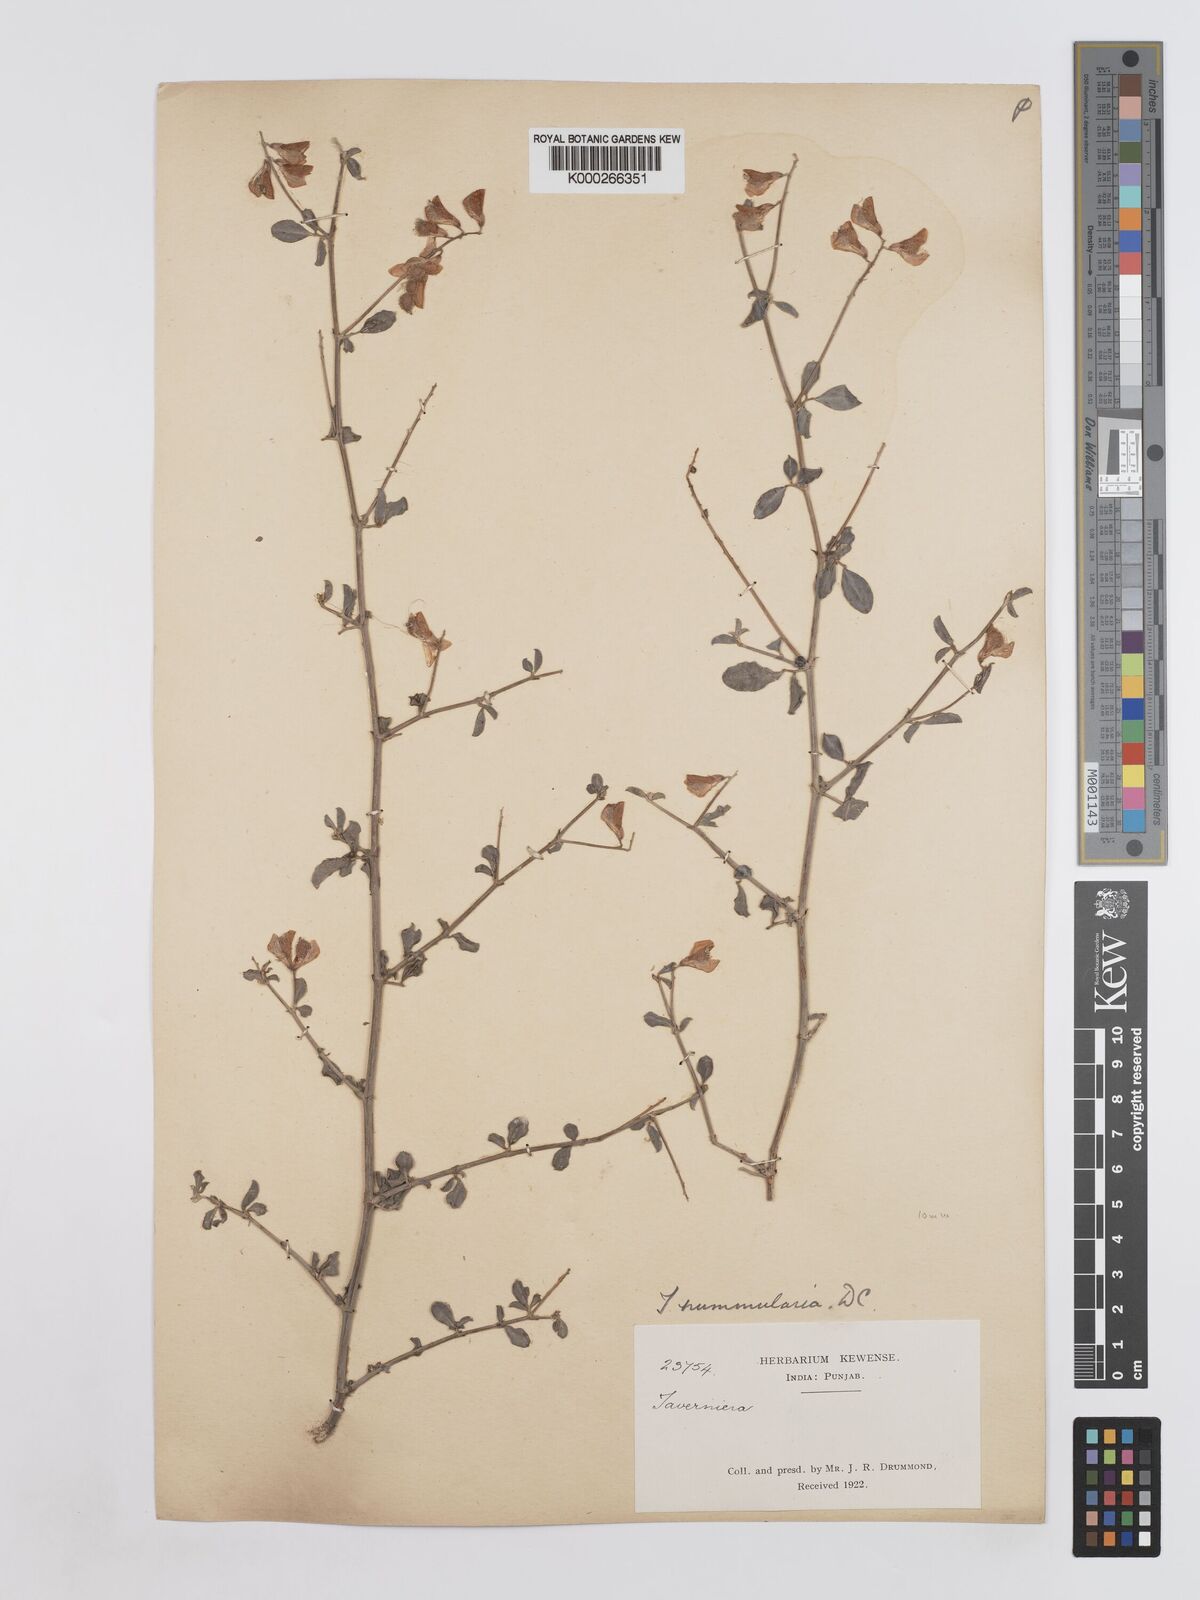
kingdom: Plantae
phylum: Tracheophyta
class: Magnoliopsida
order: Fabales
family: Fabaceae
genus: Taverniera
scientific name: Taverniera nummularia
